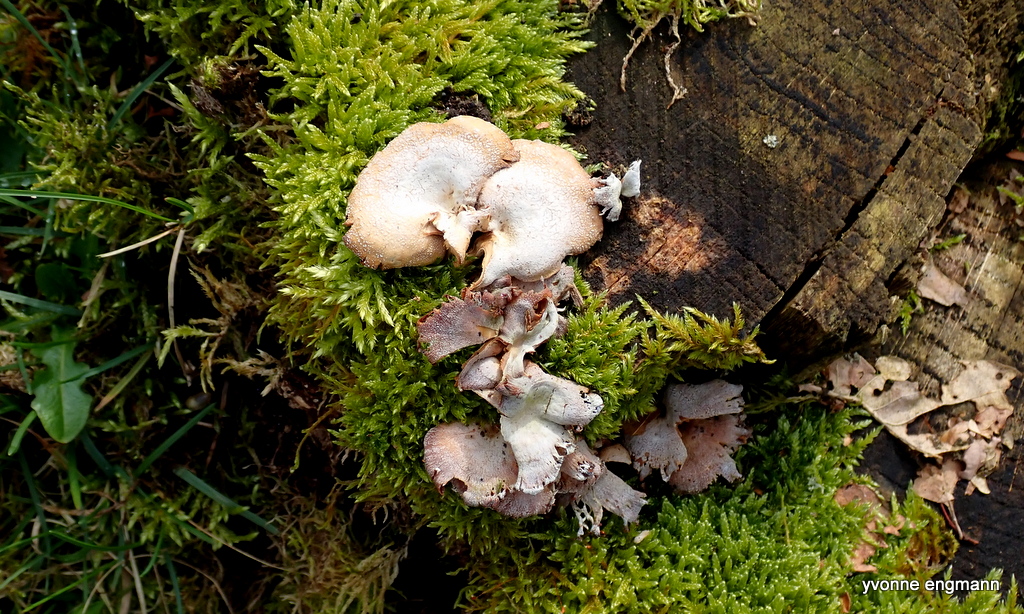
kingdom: Fungi
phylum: Basidiomycota
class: Agaricomycetes
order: Agaricales
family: Mycenaceae
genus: Panellus
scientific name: Panellus stipticus
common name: kliddet epaulethat
